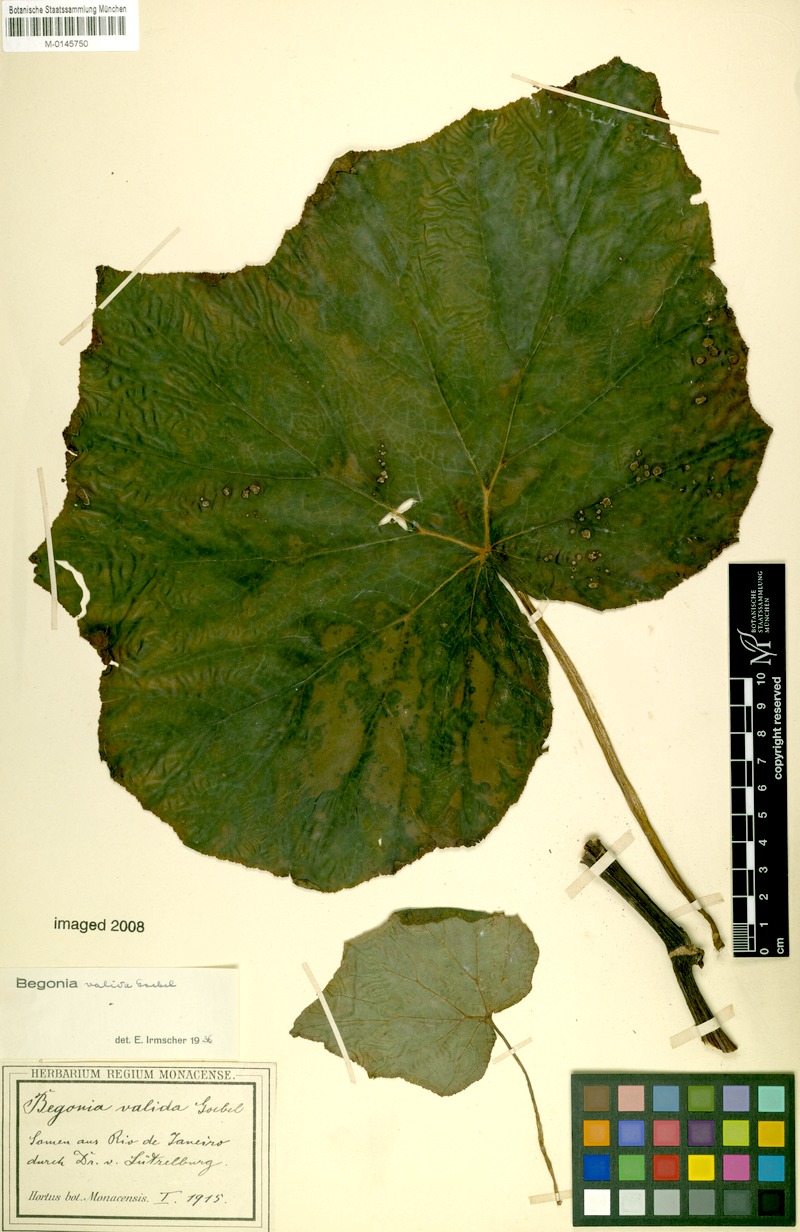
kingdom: Plantae
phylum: Tracheophyta
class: Magnoliopsida
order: Cucurbitales
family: Begoniaceae
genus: Begonia
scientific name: Begonia valida
